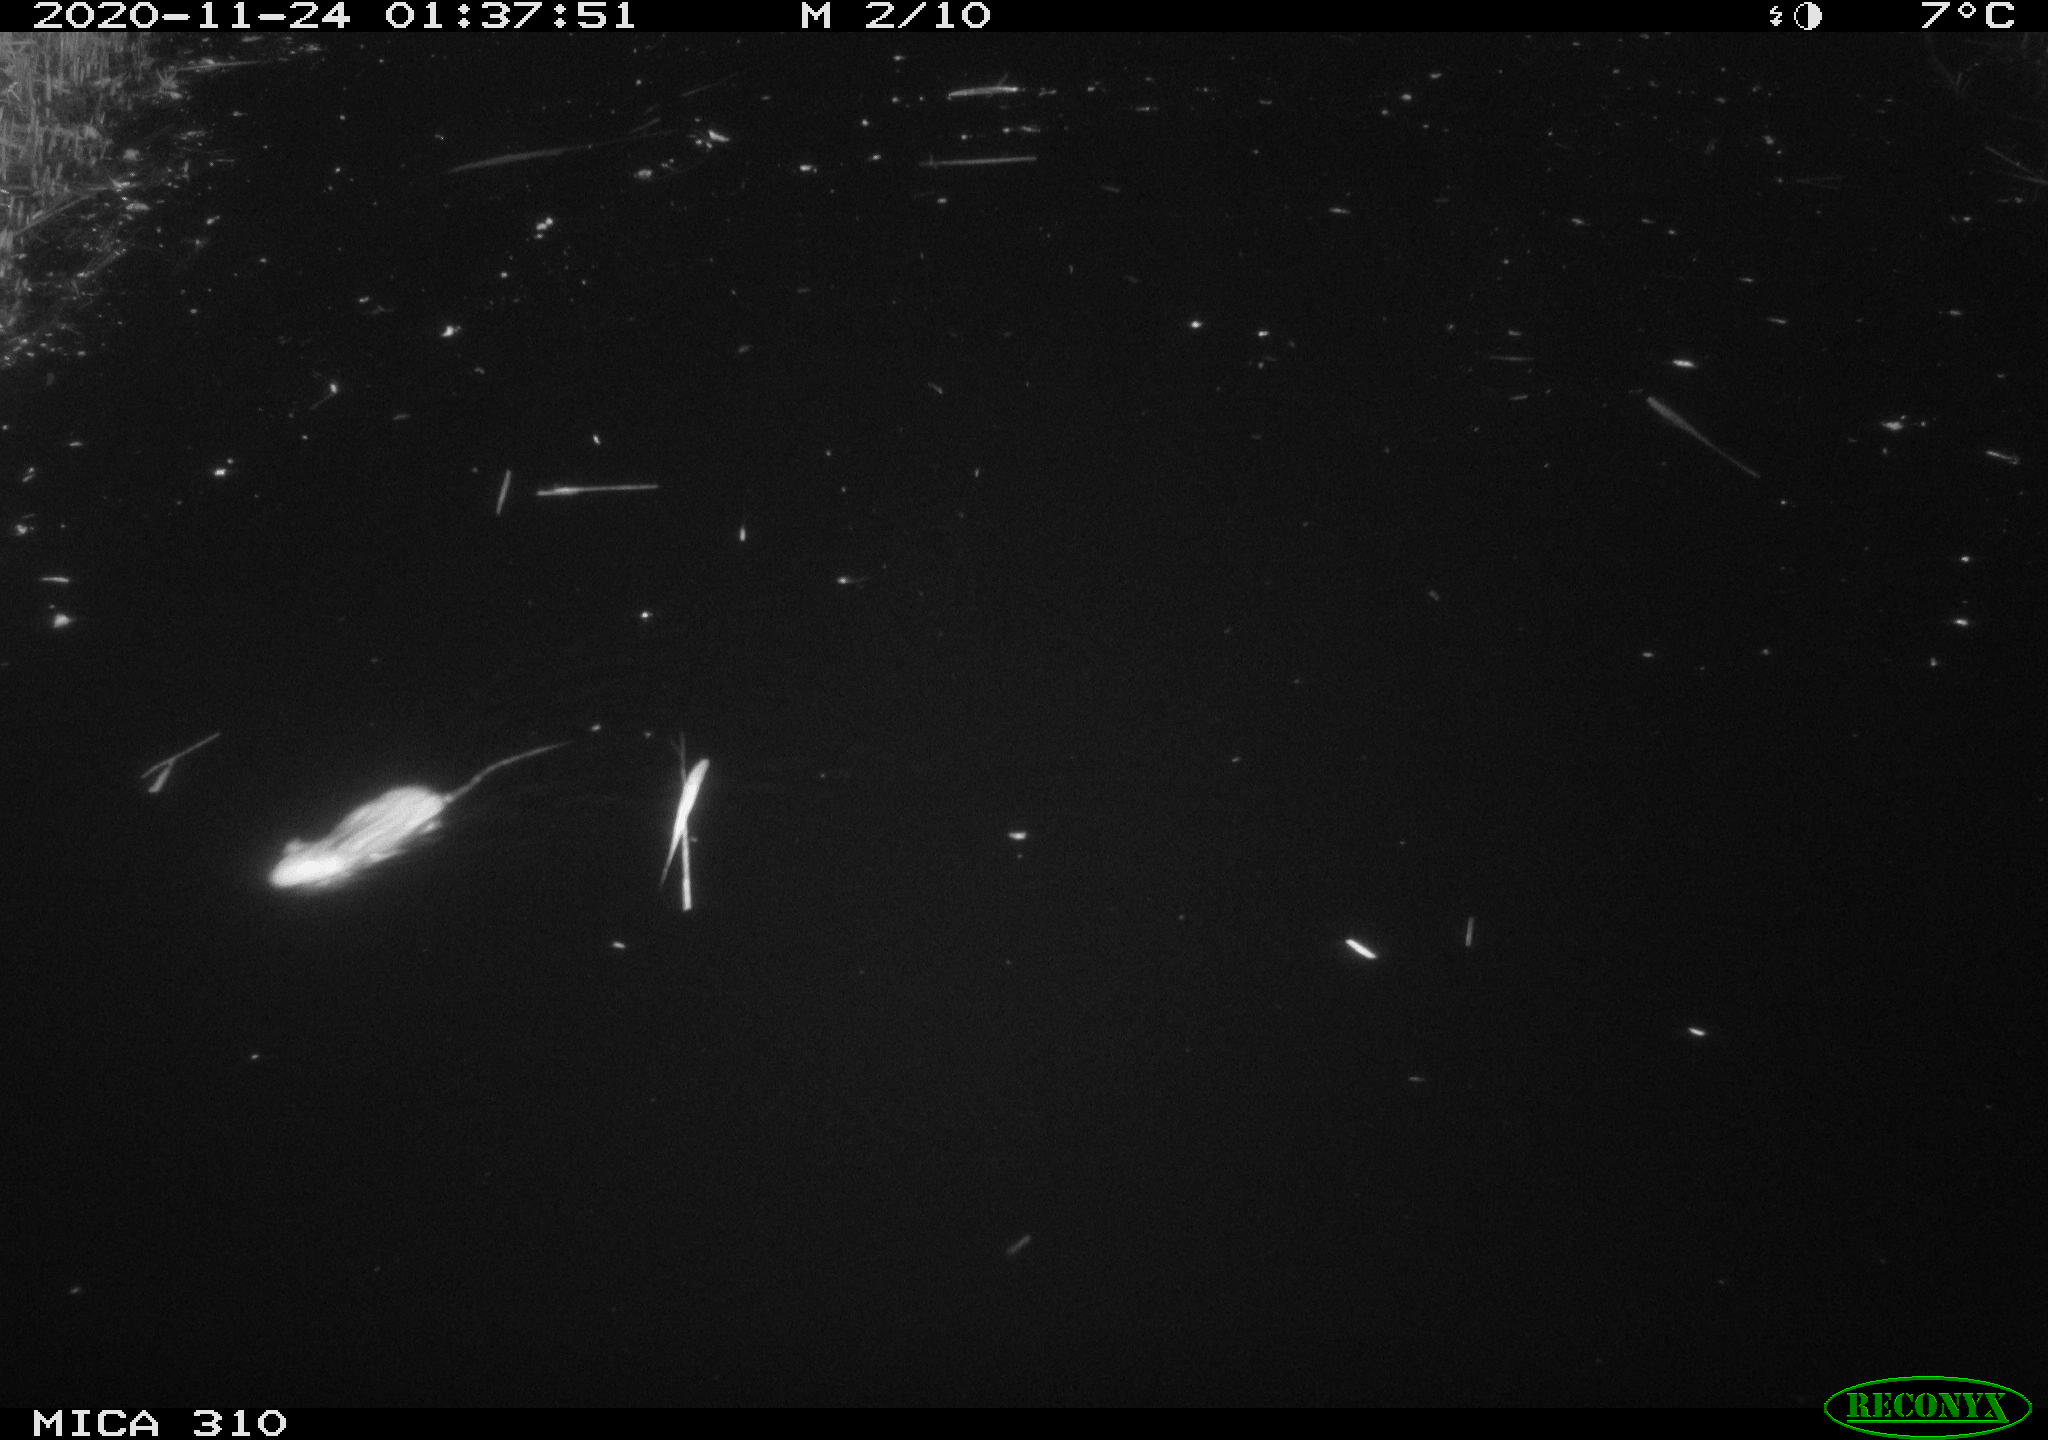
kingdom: Animalia
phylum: Chordata
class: Mammalia
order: Rodentia
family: Muridae
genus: Rattus
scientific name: Rattus norvegicus
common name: Brown rat
